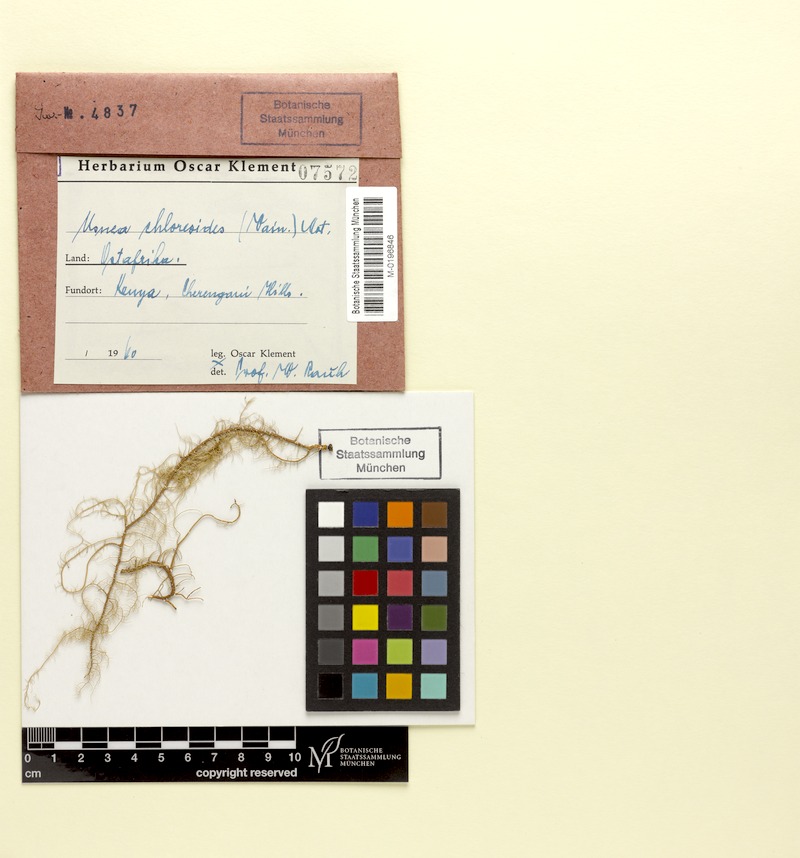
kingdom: Fungi
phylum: Ascomycota
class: Lecanoromycetes
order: Lecanorales
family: Parmeliaceae
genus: Usnea
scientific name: Usnea chloreoides
